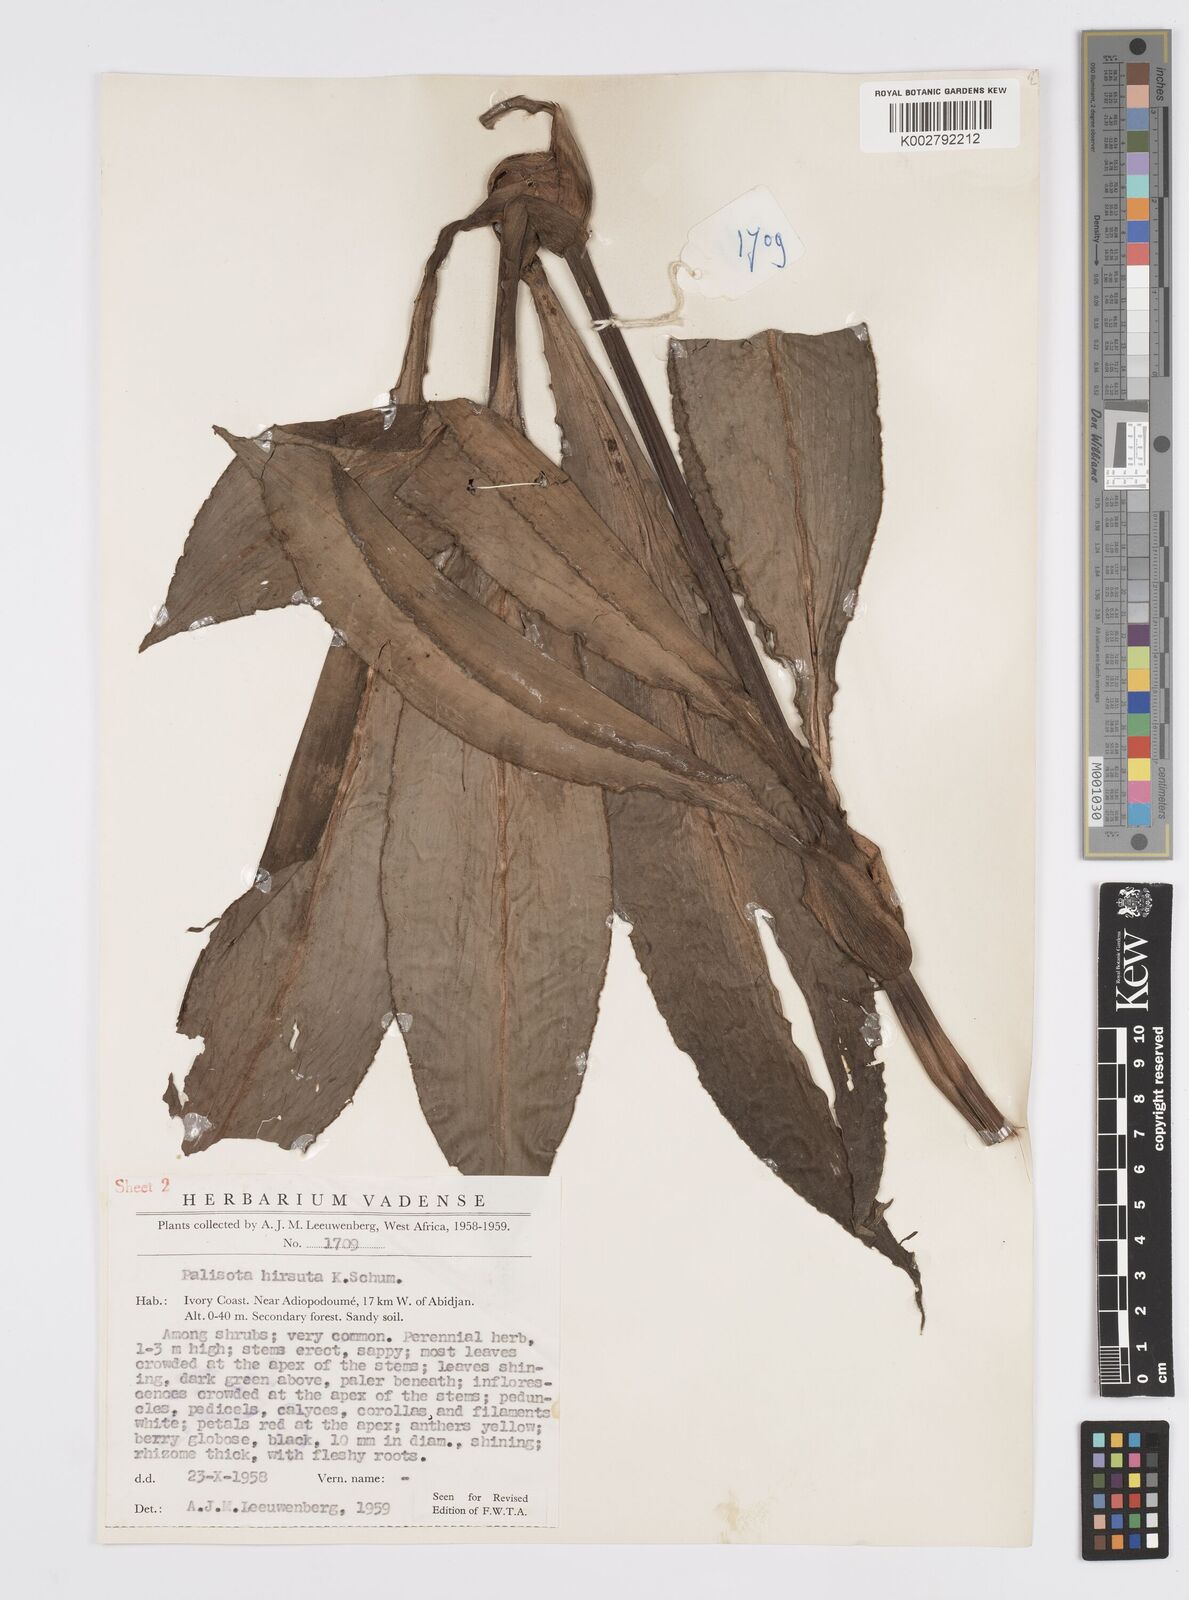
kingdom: Plantae
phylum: Tracheophyta
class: Liliopsida
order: Commelinales
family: Commelinaceae
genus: Palisota
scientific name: Palisota hirsuta
